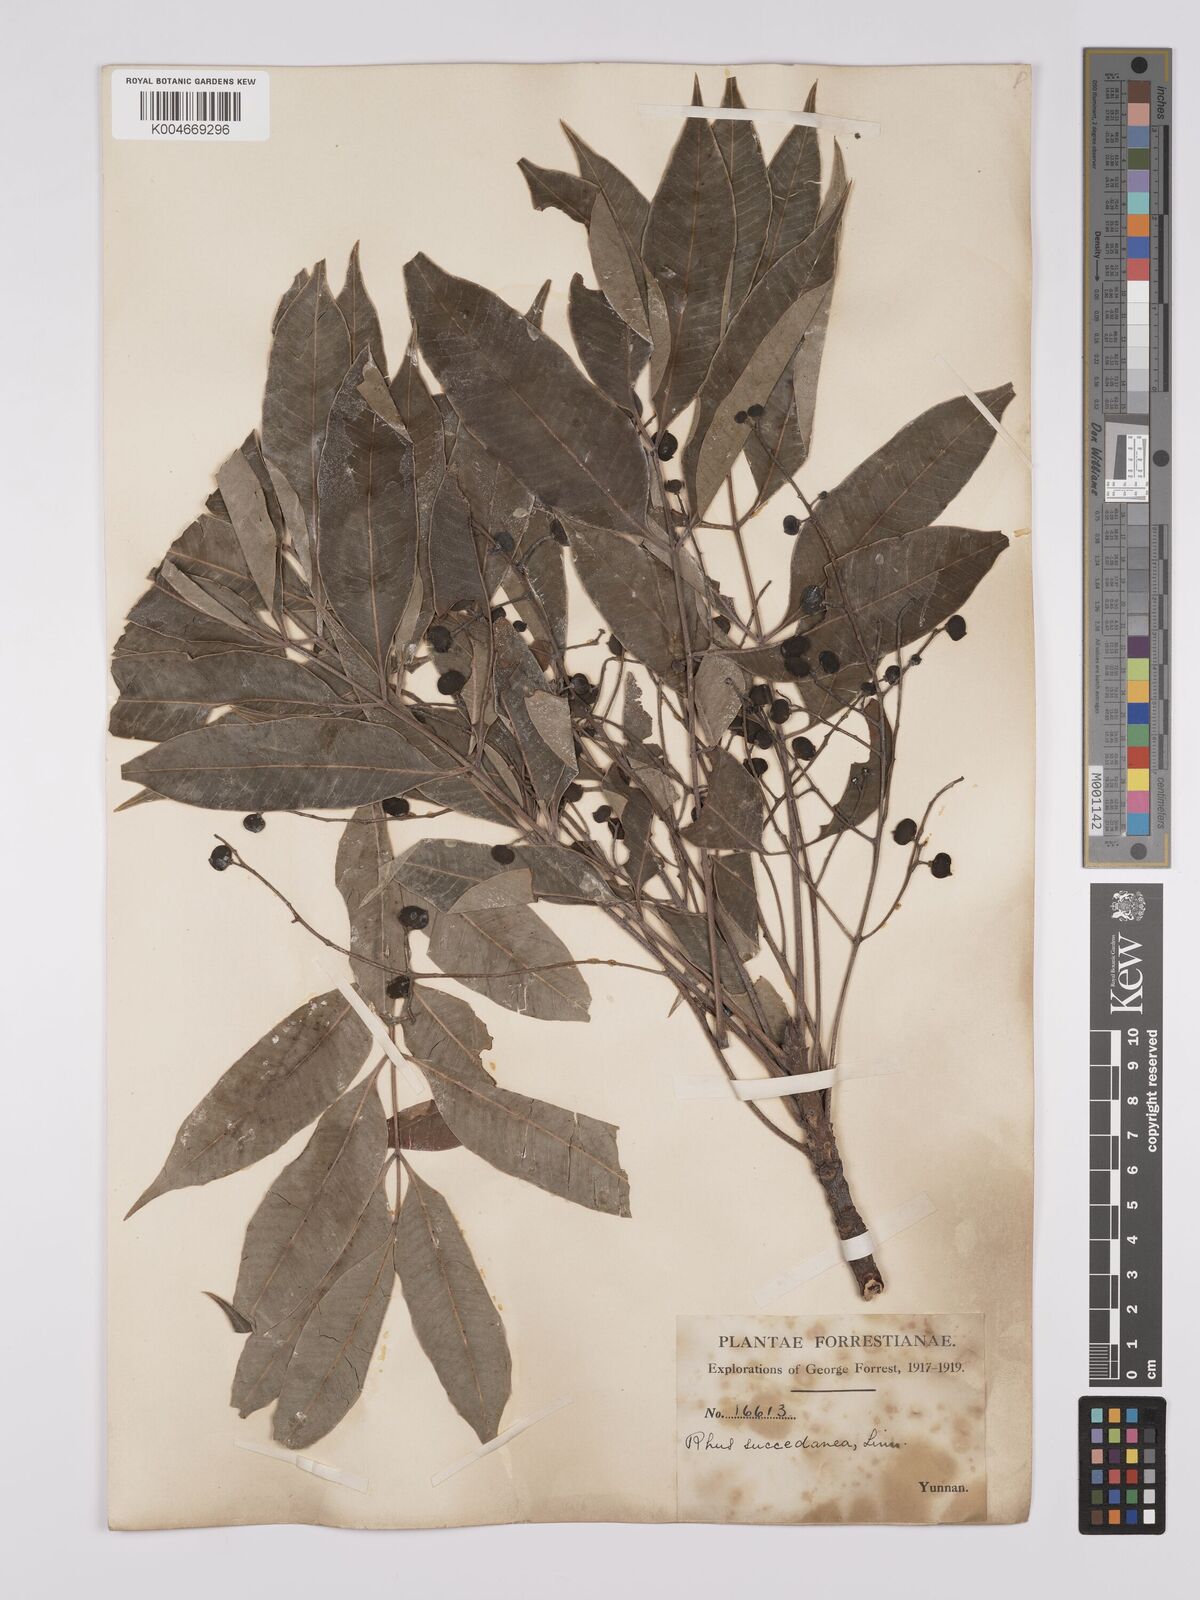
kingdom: Plantae
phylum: Tracheophyta
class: Magnoliopsida
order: Sapindales
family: Anacardiaceae
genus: Toxicodendron
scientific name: Toxicodendron succedaneum
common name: Wax tree
